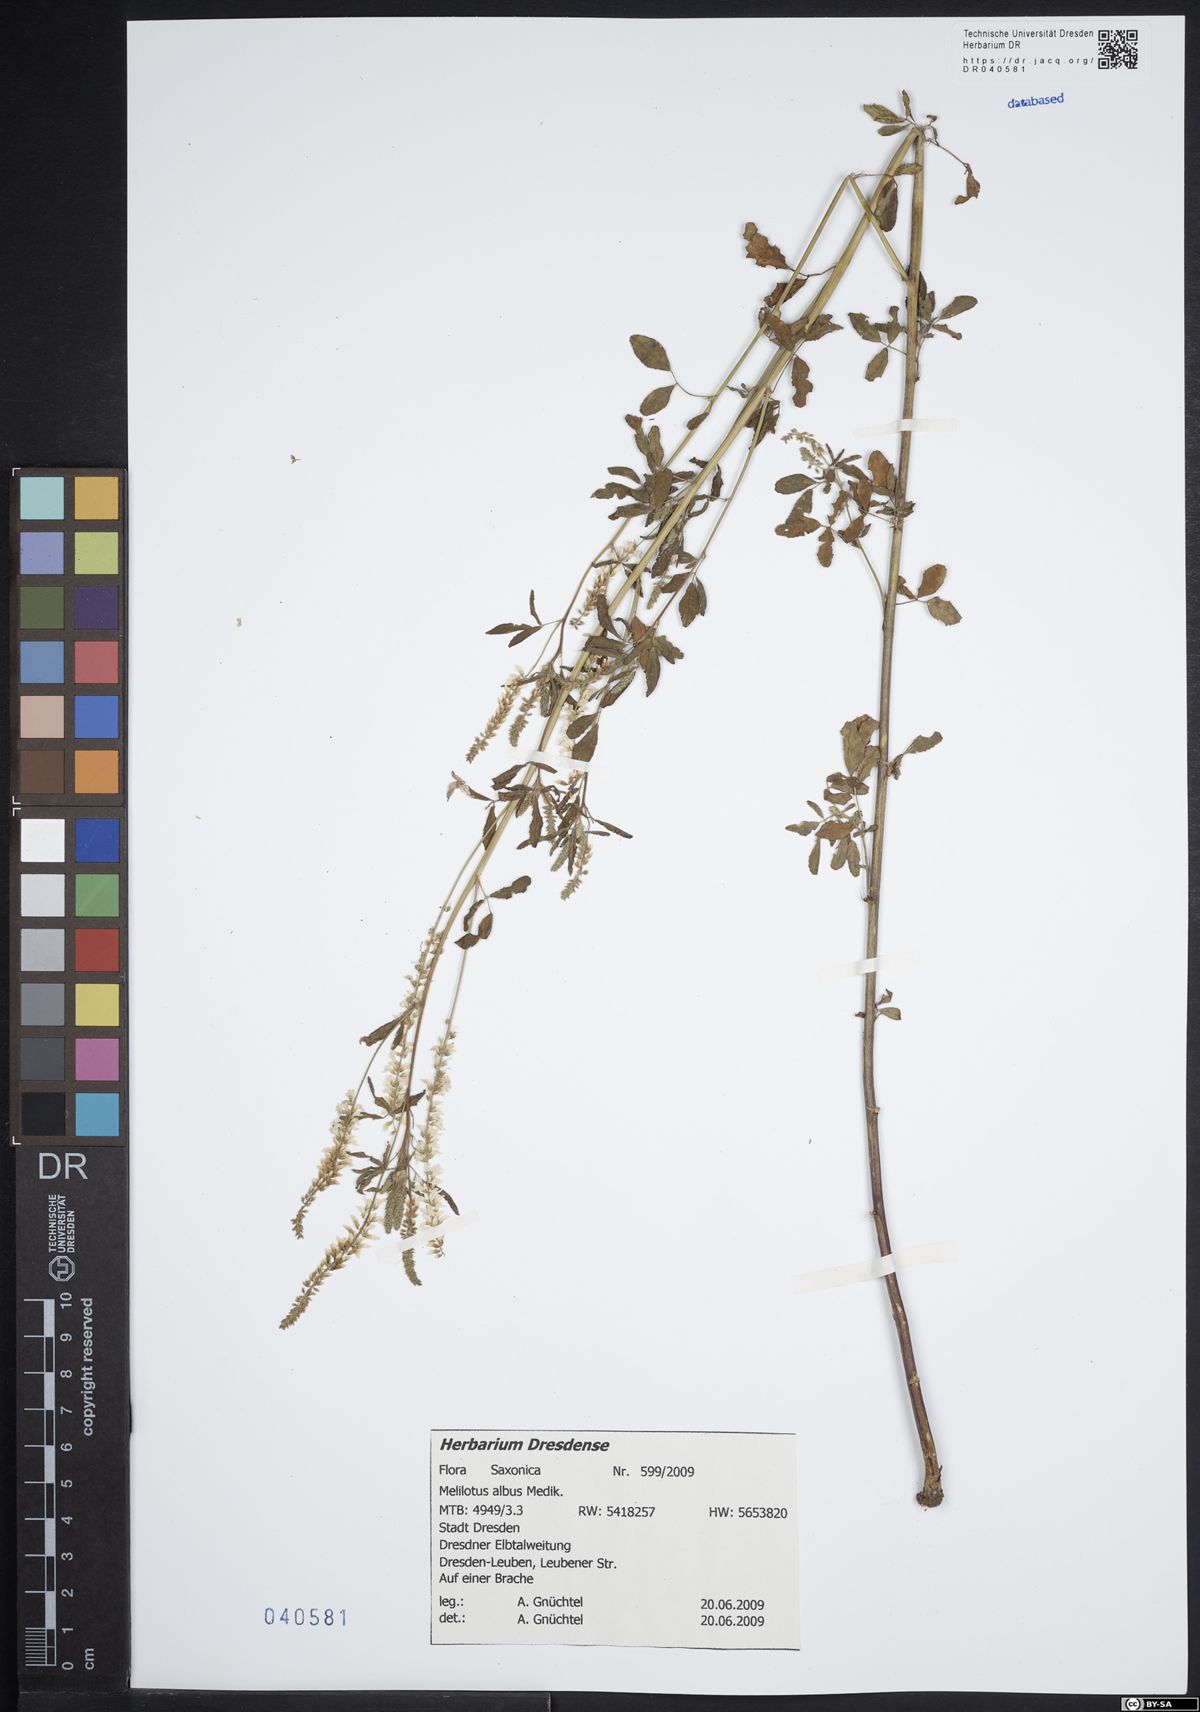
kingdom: Plantae
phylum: Tracheophyta
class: Magnoliopsida
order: Fabales
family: Fabaceae
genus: Melilotus
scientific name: Melilotus albus
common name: White melilot
